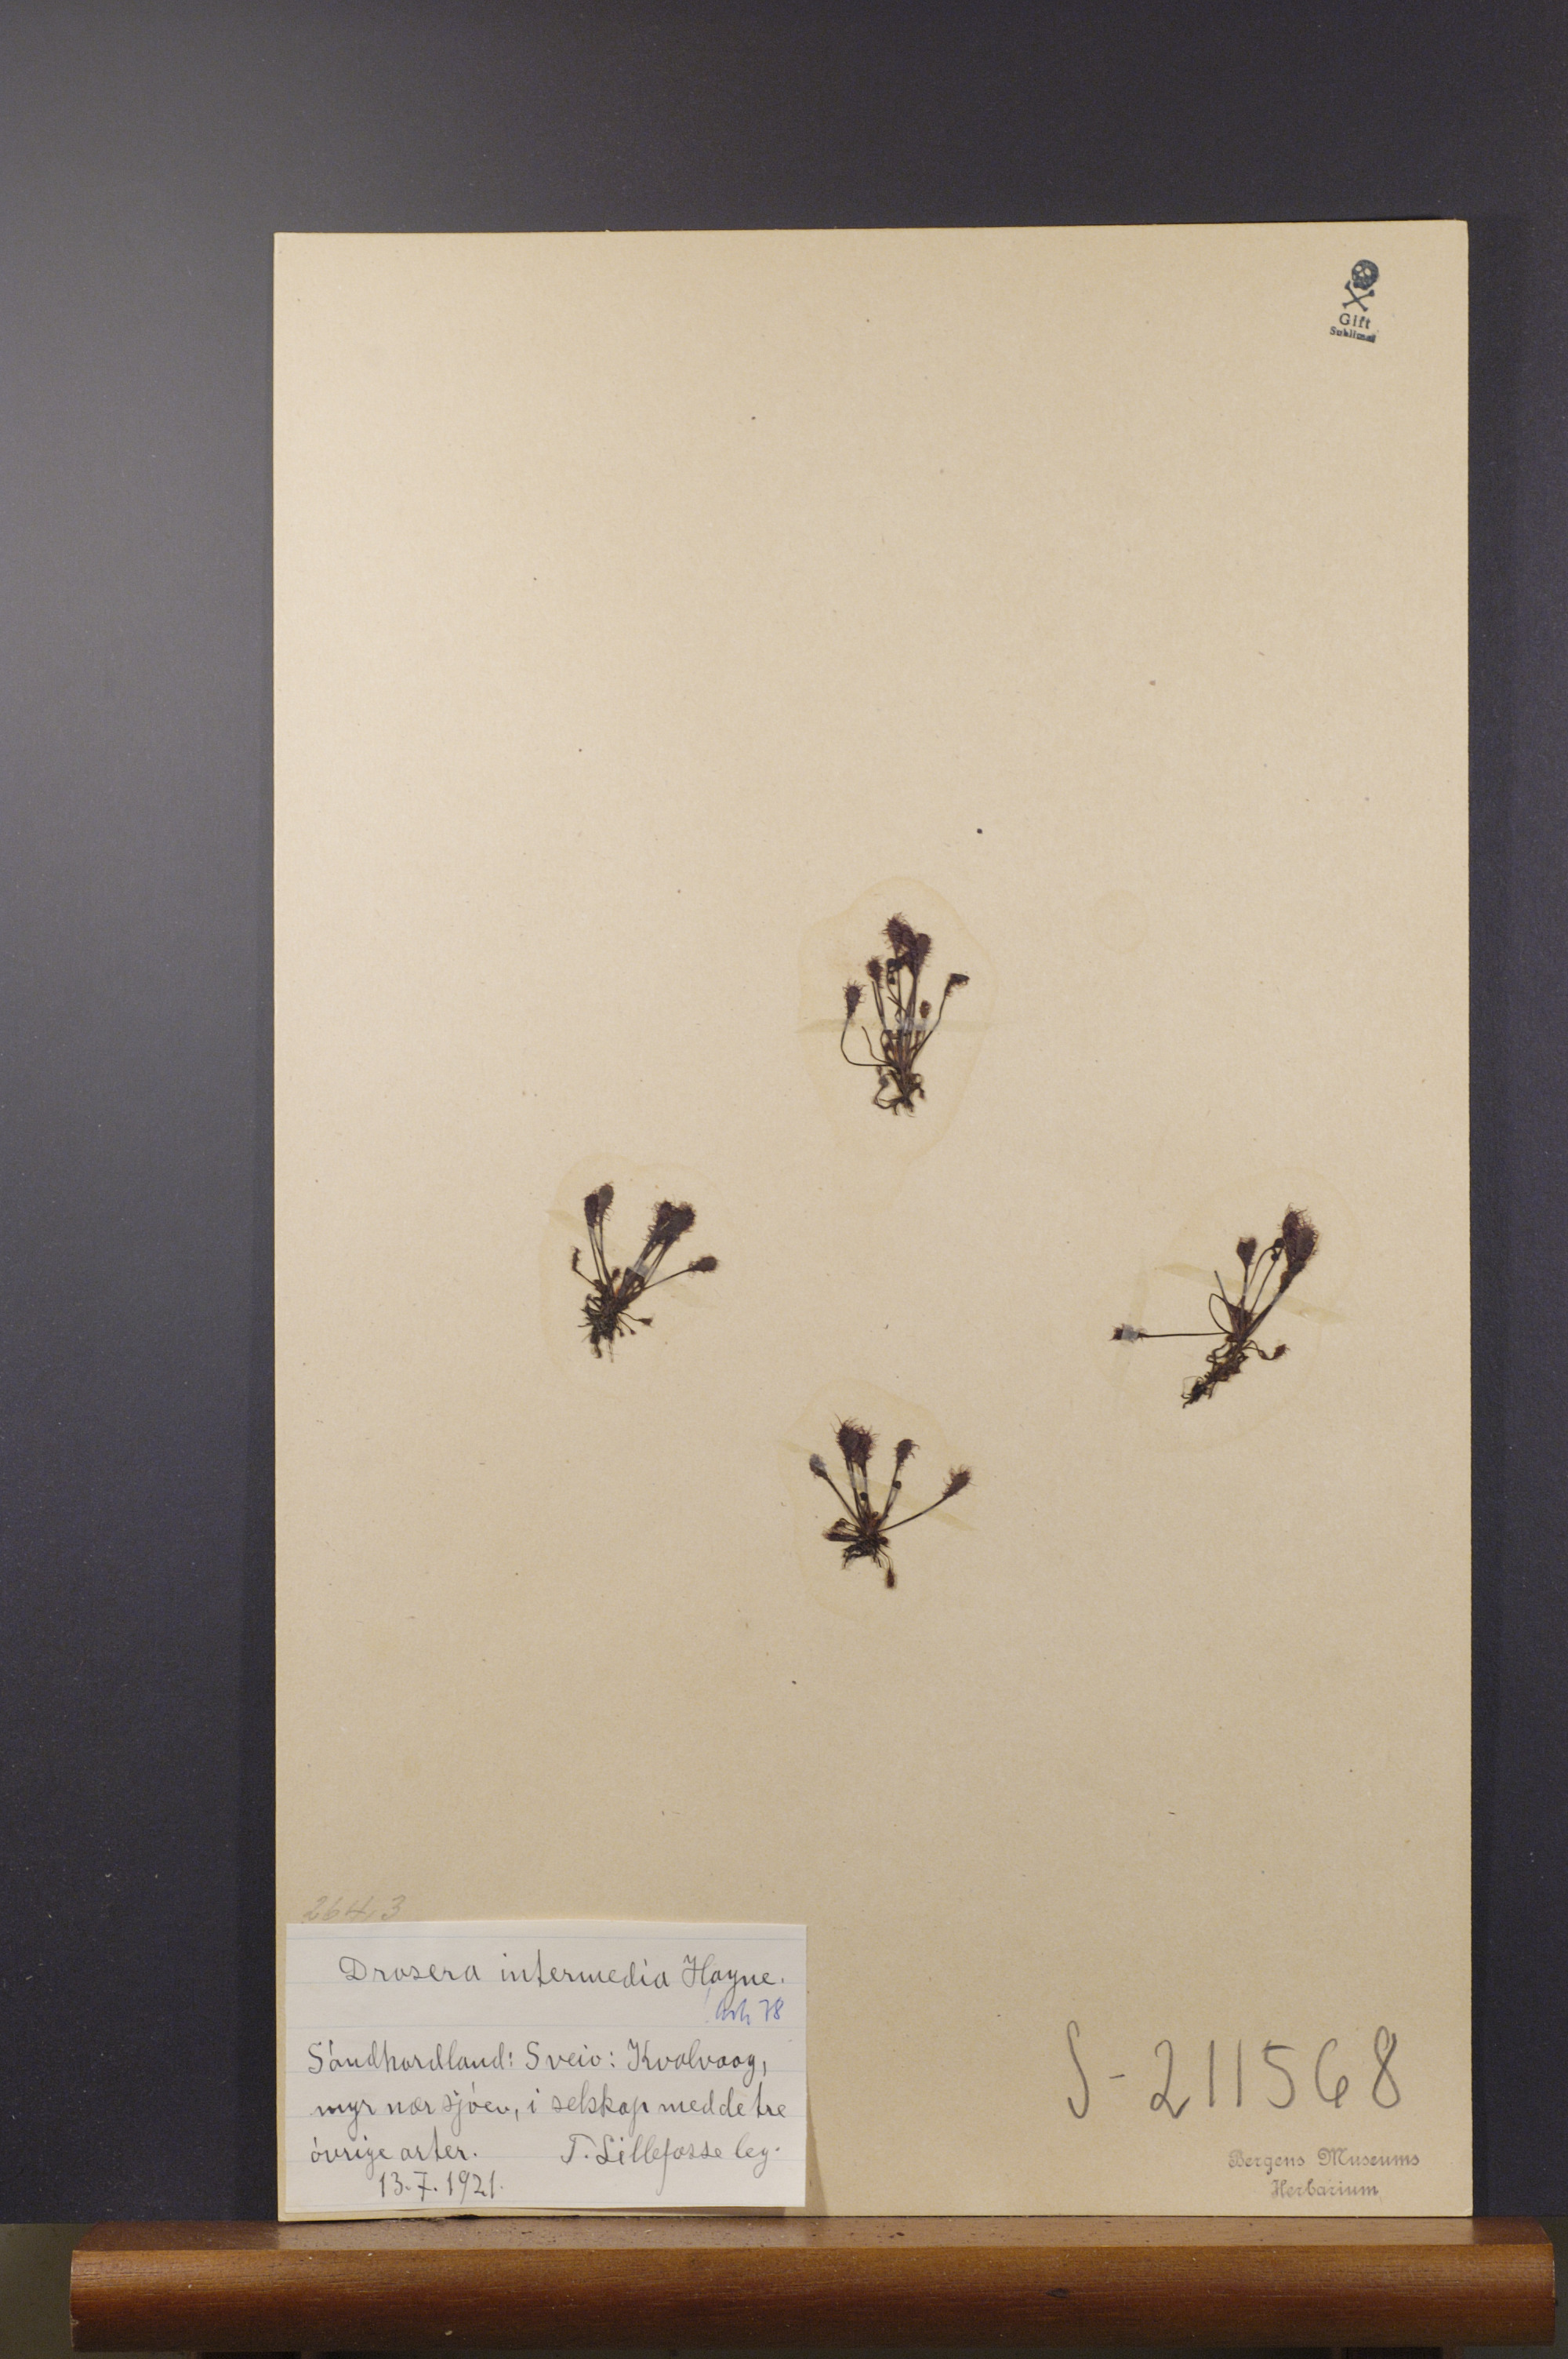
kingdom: Plantae
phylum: Tracheophyta
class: Magnoliopsida
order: Caryophyllales
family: Droseraceae
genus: Drosera
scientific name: Drosera intermedia
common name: Oblong-leaved sundew
